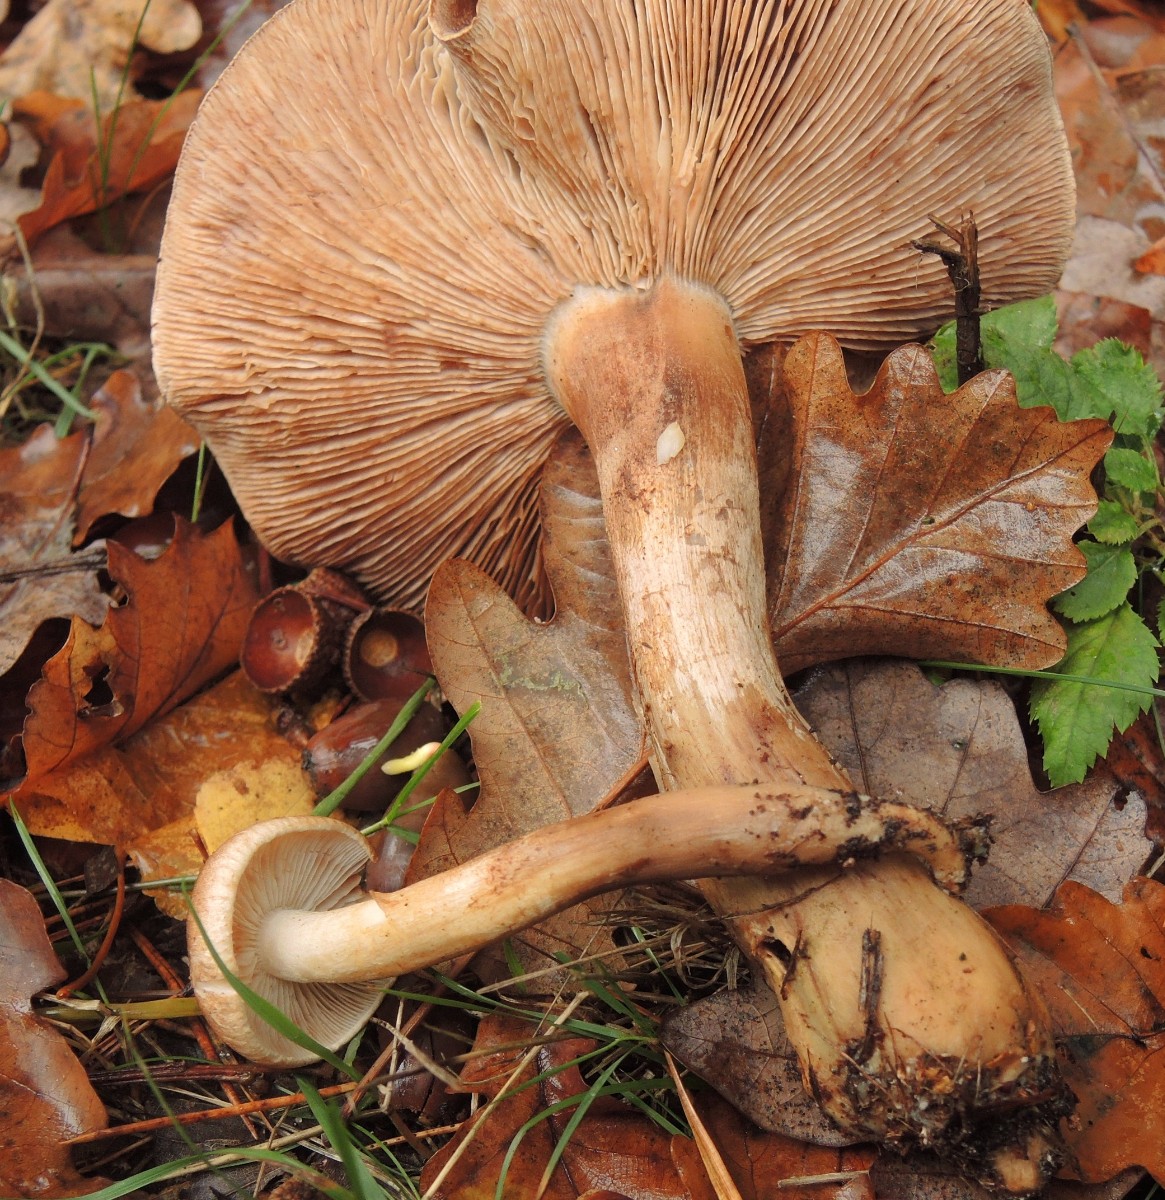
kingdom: Fungi
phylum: Basidiomycota
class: Agaricomycetes
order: Agaricales
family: Tricholomataceae
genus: Tricholoma
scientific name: Tricholoma imbricatum
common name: skællet ridderhat
